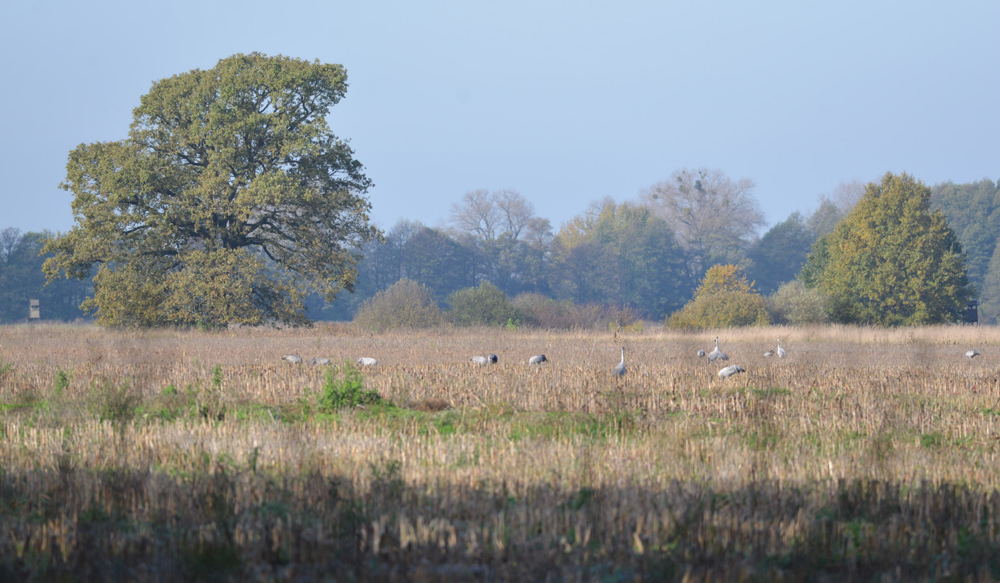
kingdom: Animalia
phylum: Chordata
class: Aves
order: Gruiformes
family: Gruidae
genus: Grus
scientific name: Grus grus
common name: Common crane
